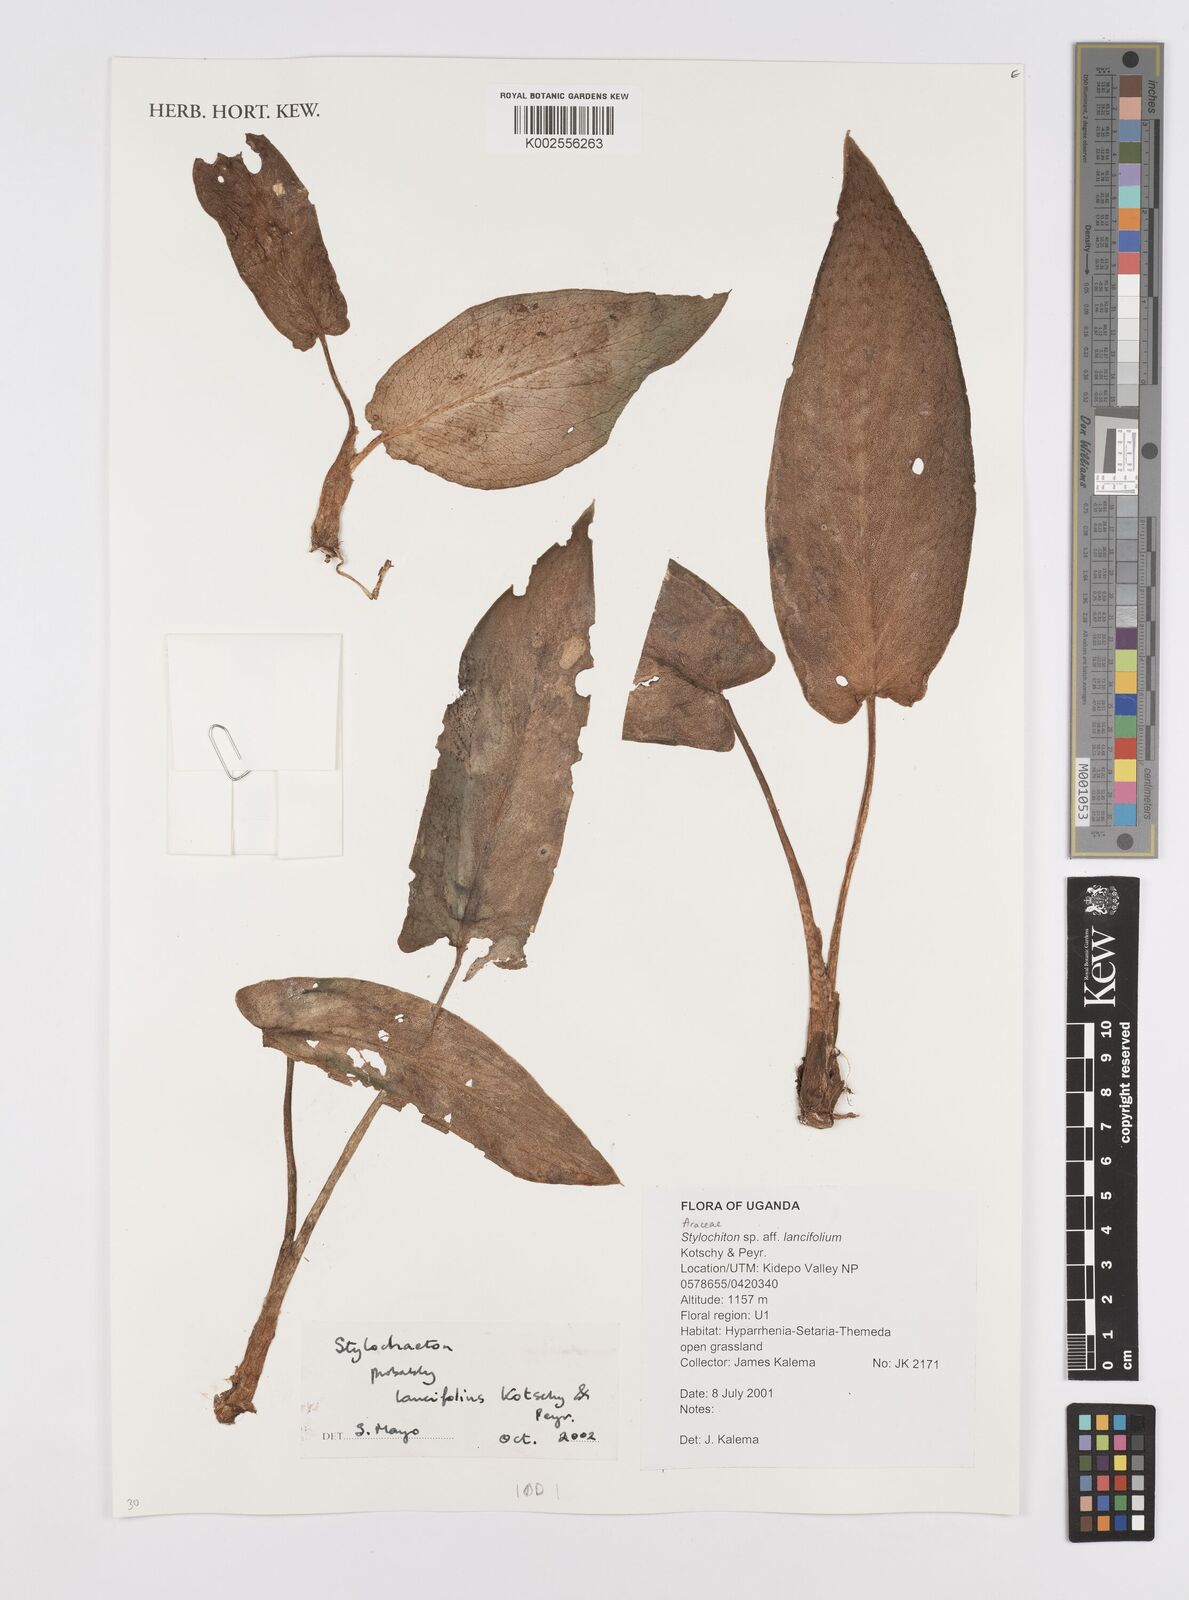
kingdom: Plantae
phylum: Tracheophyta
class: Liliopsida
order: Alismatales
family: Araceae
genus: Stylochaeton
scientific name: Stylochaeton lancifolium
